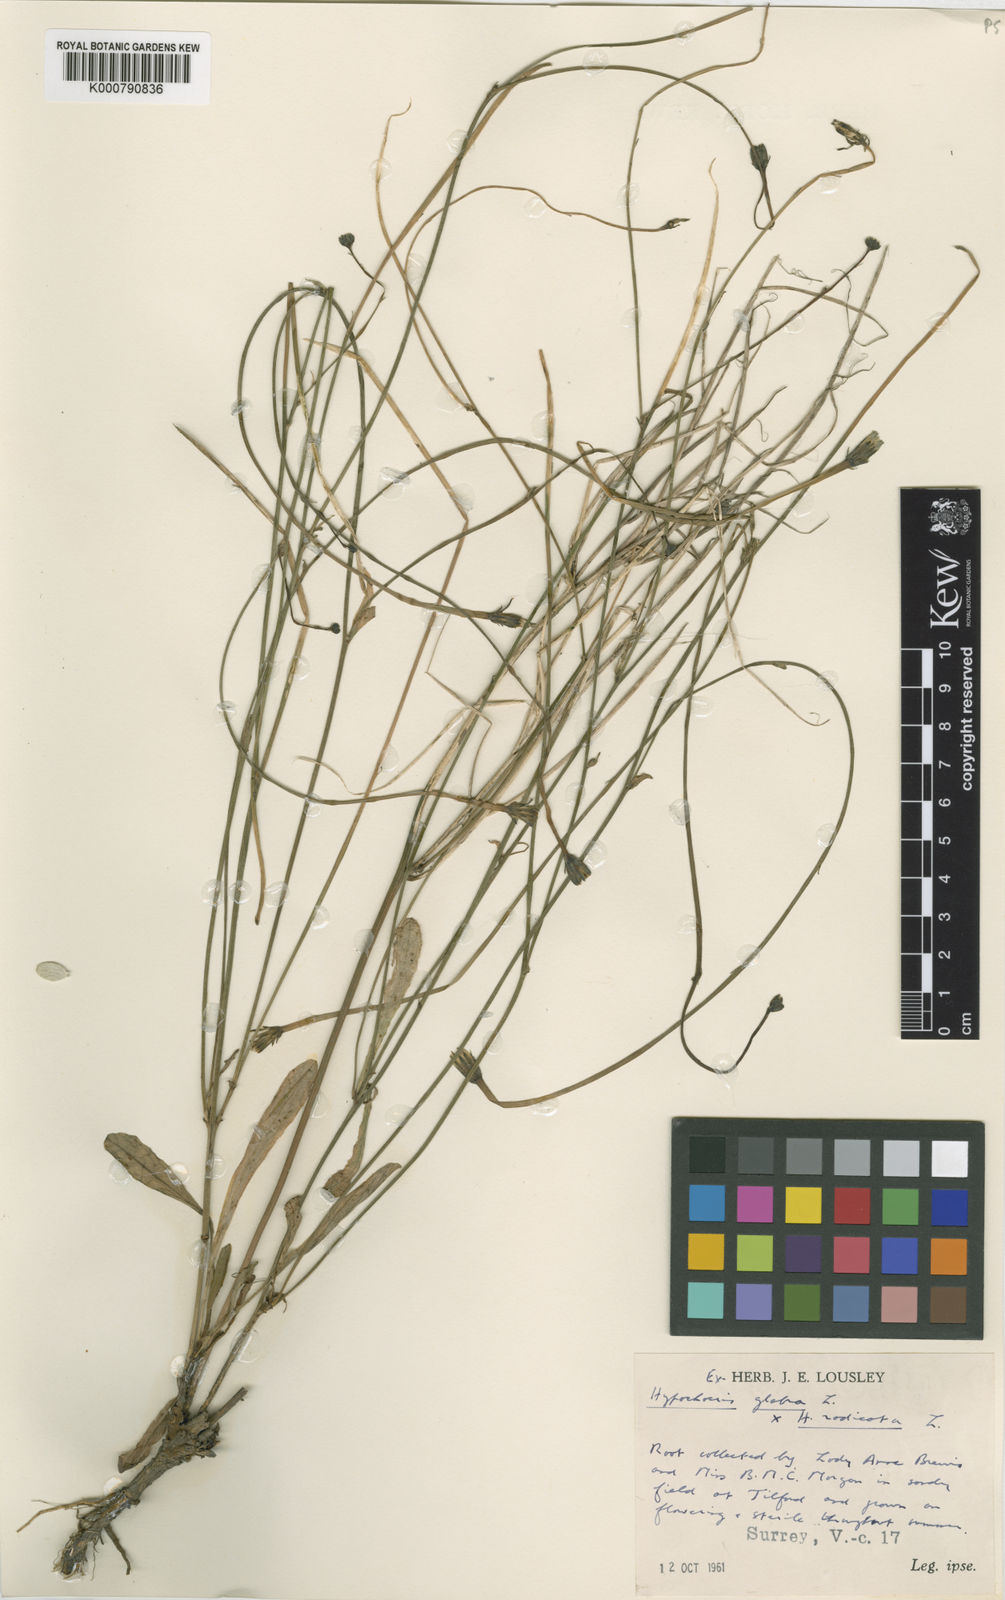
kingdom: Plantae
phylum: Tracheophyta
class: Magnoliopsida
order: Asterales
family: Asteraceae
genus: Hypochaeris
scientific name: Hypochaeris glabra
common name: Smooth catsear
